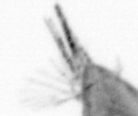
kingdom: Animalia
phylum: Arthropoda
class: Maxillopoda
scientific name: Maxillopoda
